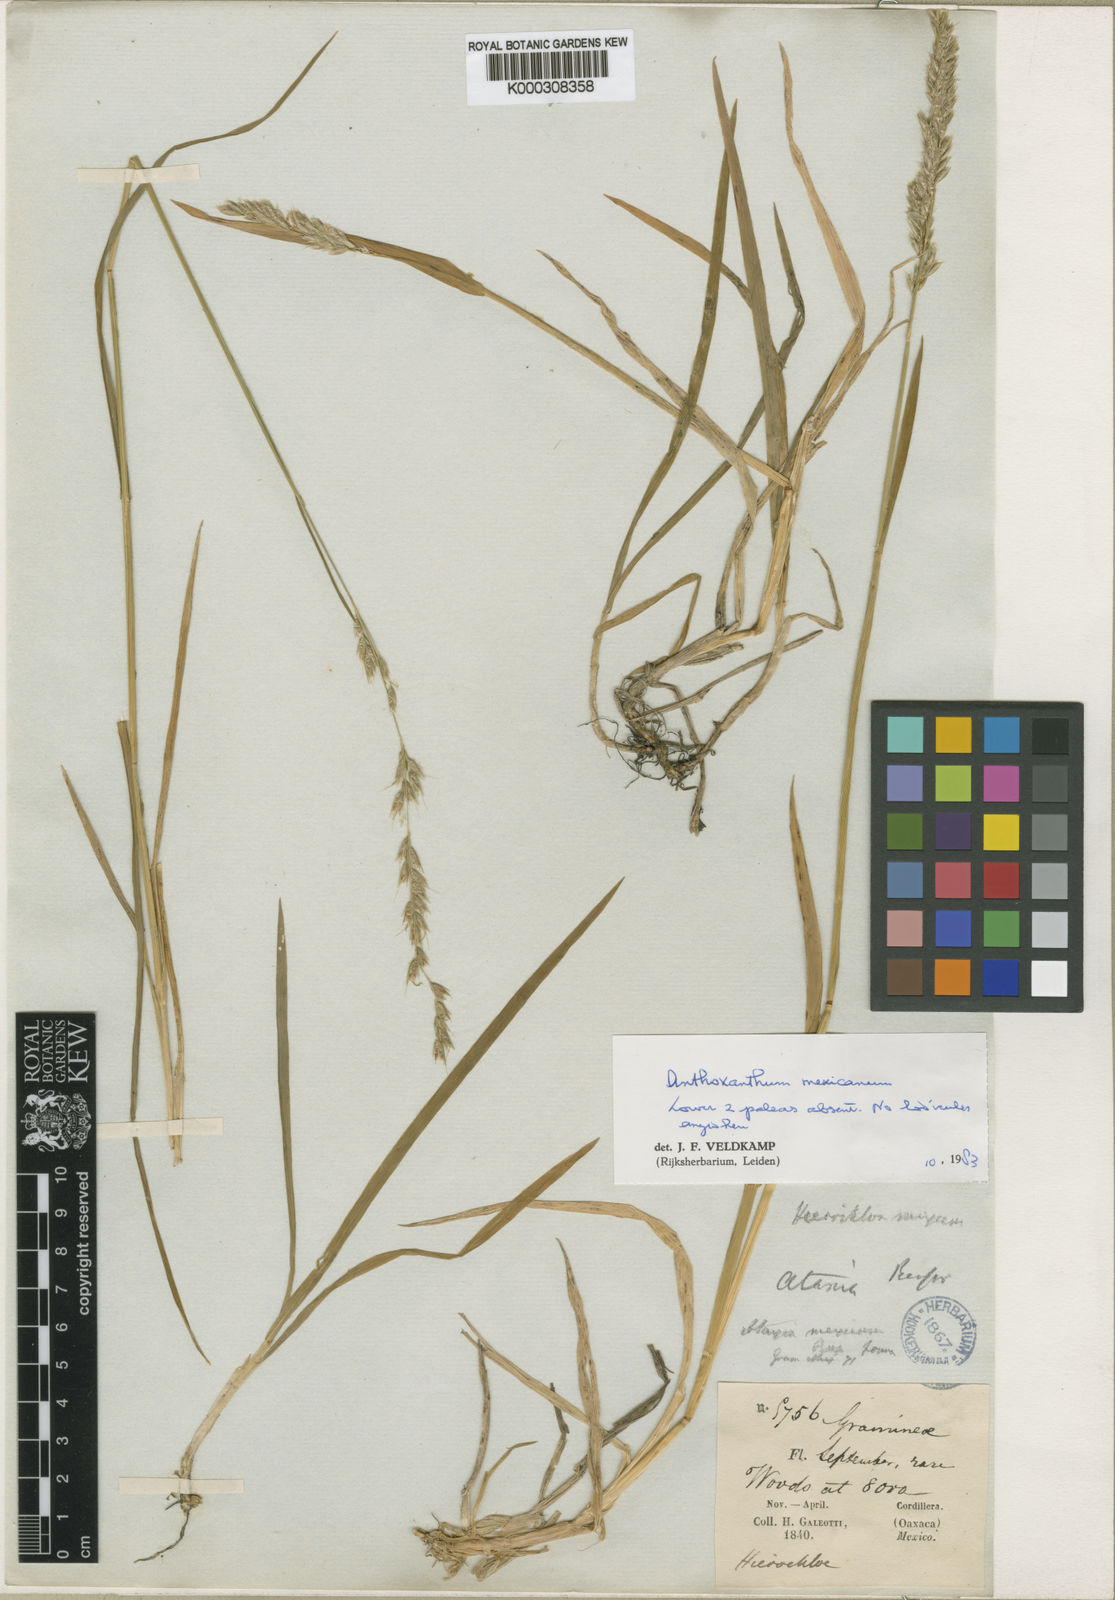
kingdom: Plantae
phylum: Tracheophyta
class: Liliopsida
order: Poales
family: Poaceae
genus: Anthoxanthum
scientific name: Anthoxanthum mexicanum
